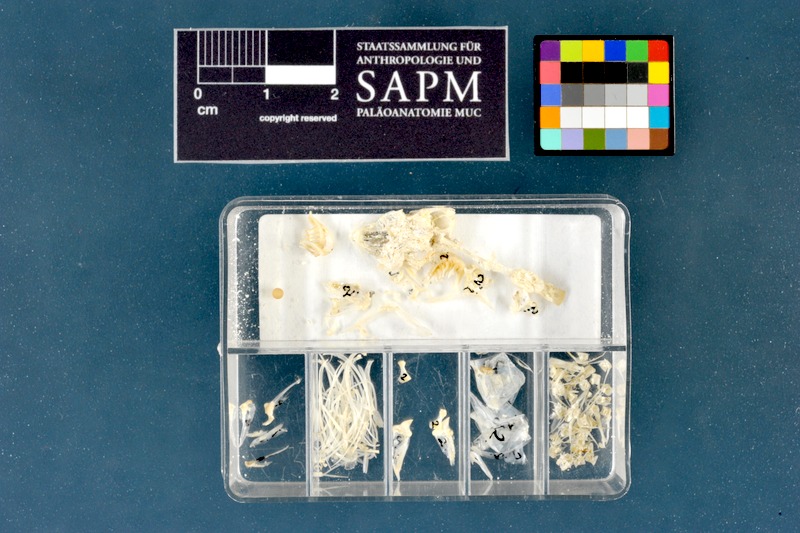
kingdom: Animalia
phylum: Chordata
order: Cypriniformes
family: Cyprinidae
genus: Parachondrostoma
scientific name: Parachondrostoma toxostoma
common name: Toxostome
